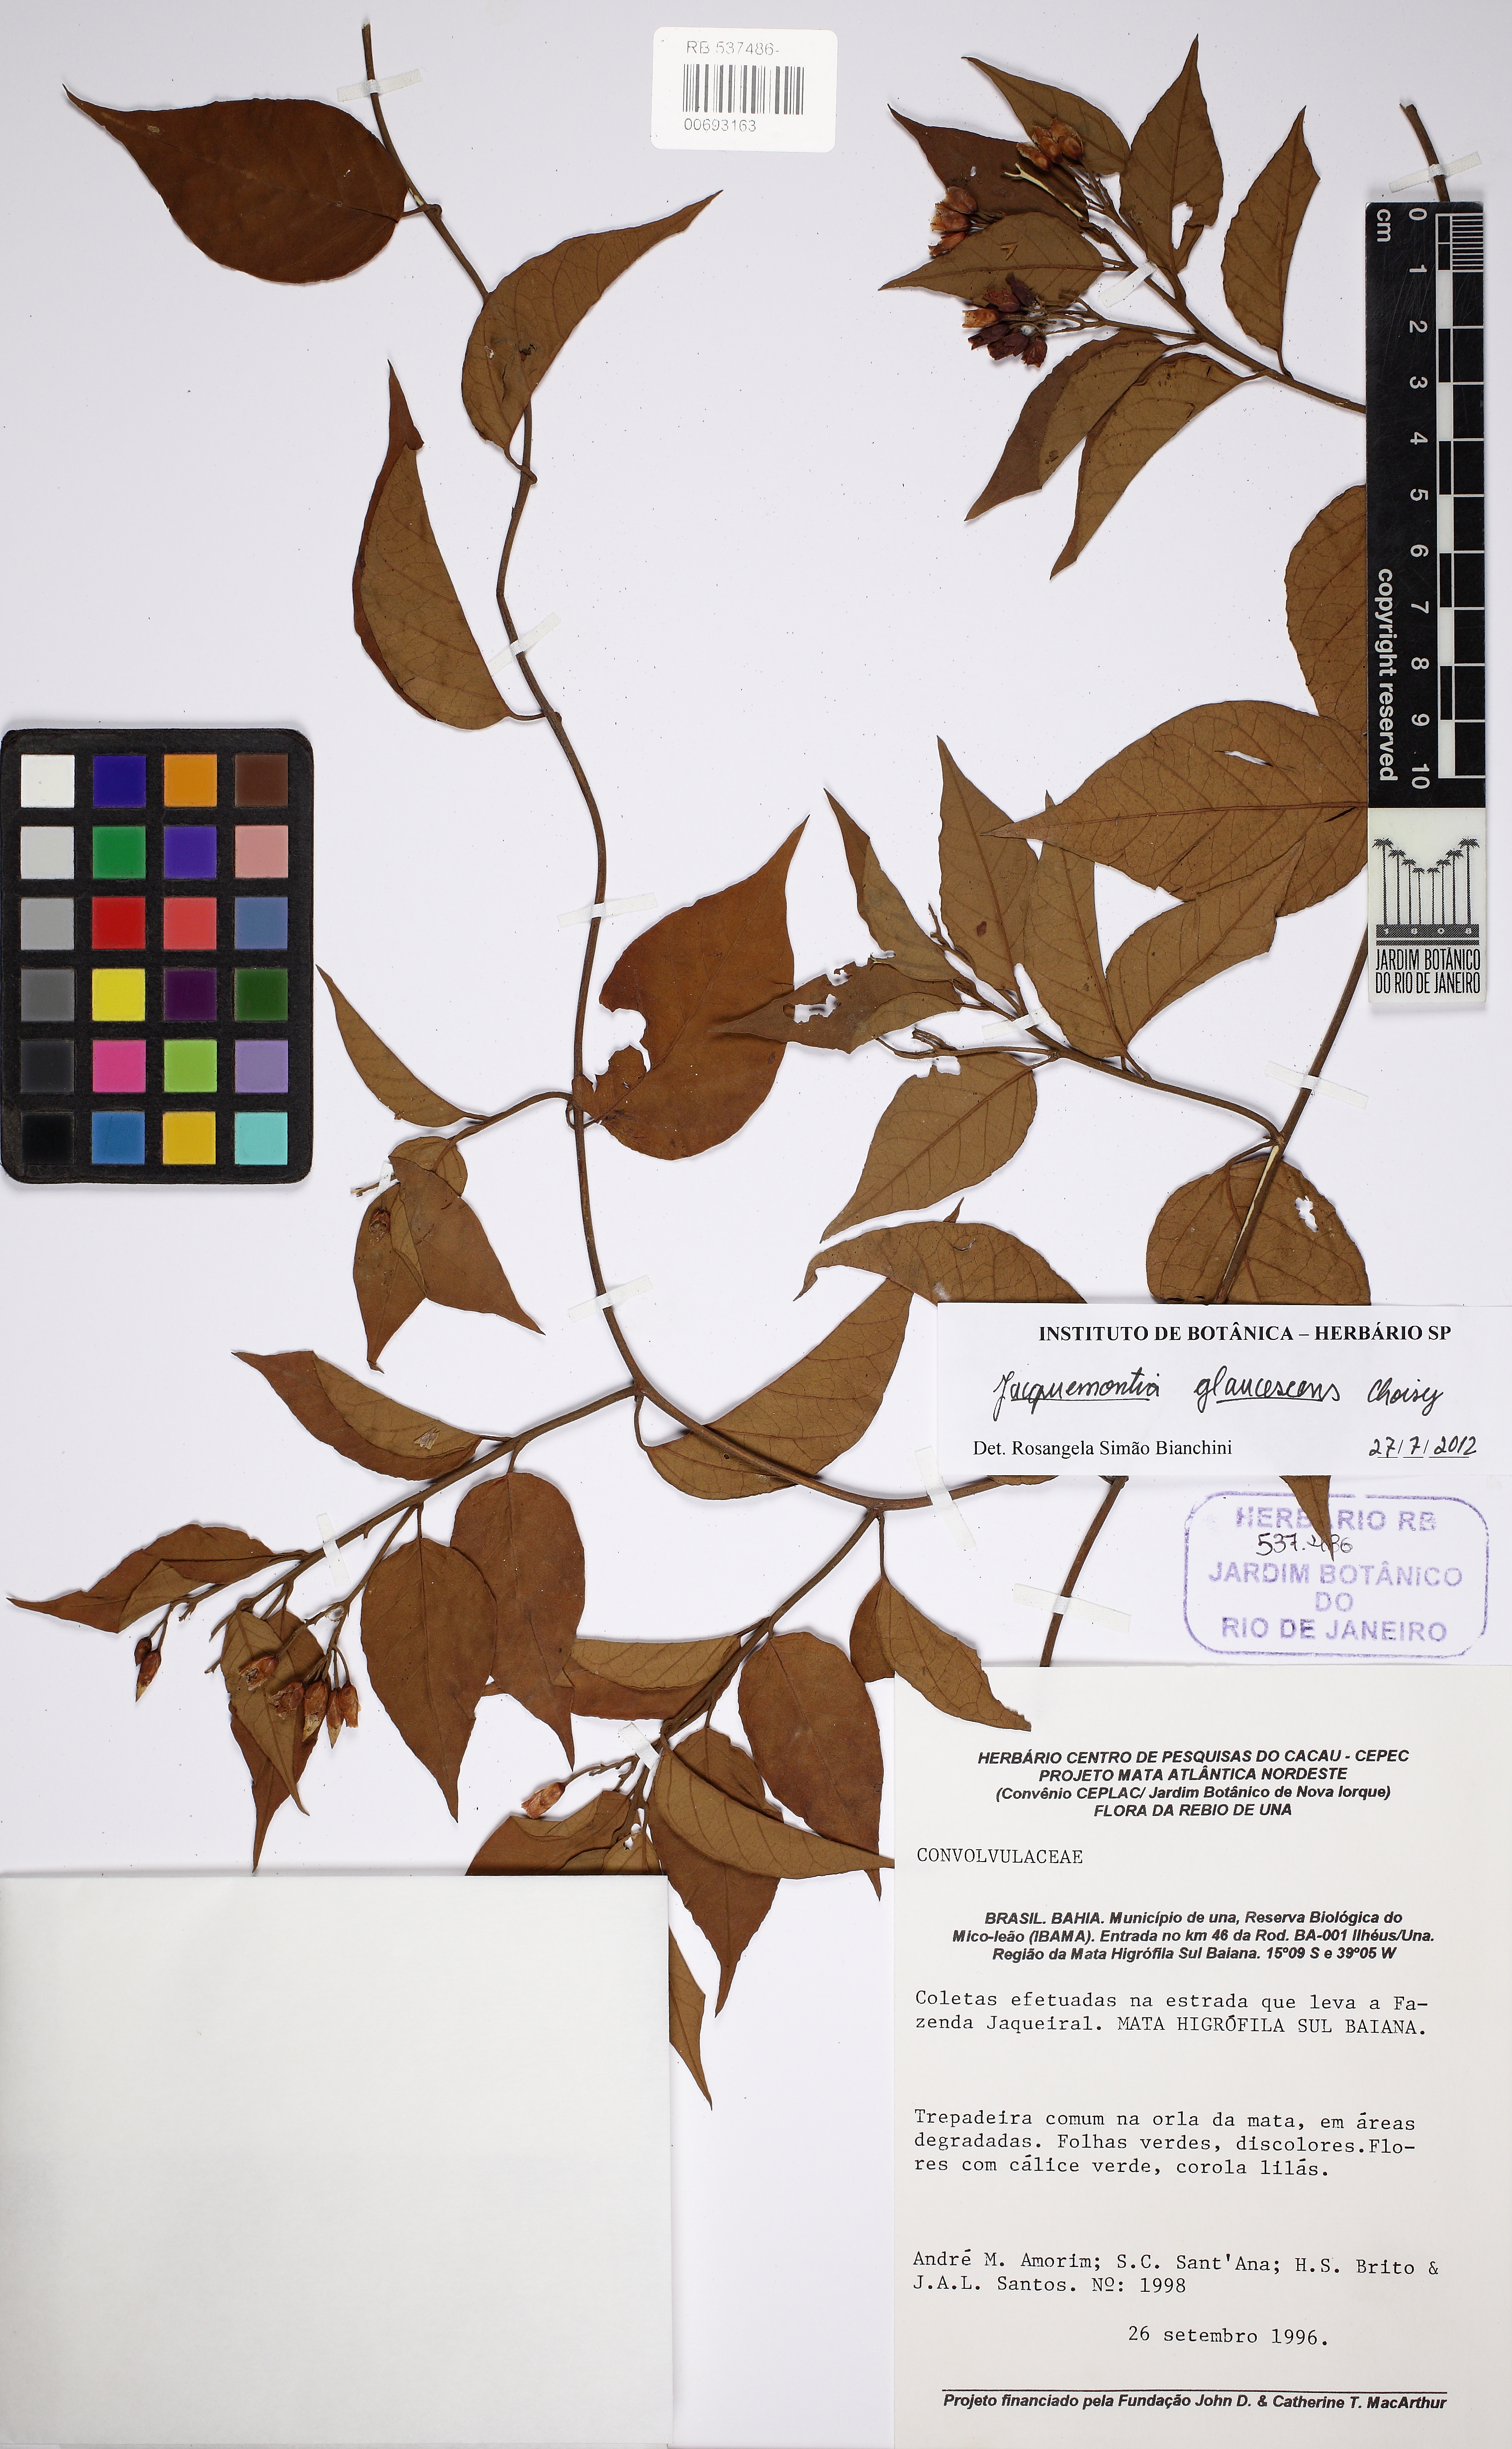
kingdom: Plantae
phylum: Tracheophyta
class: Magnoliopsida
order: Solanales
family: Convolvulaceae
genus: Jacquemontia
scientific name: Jacquemontia glaucescens
